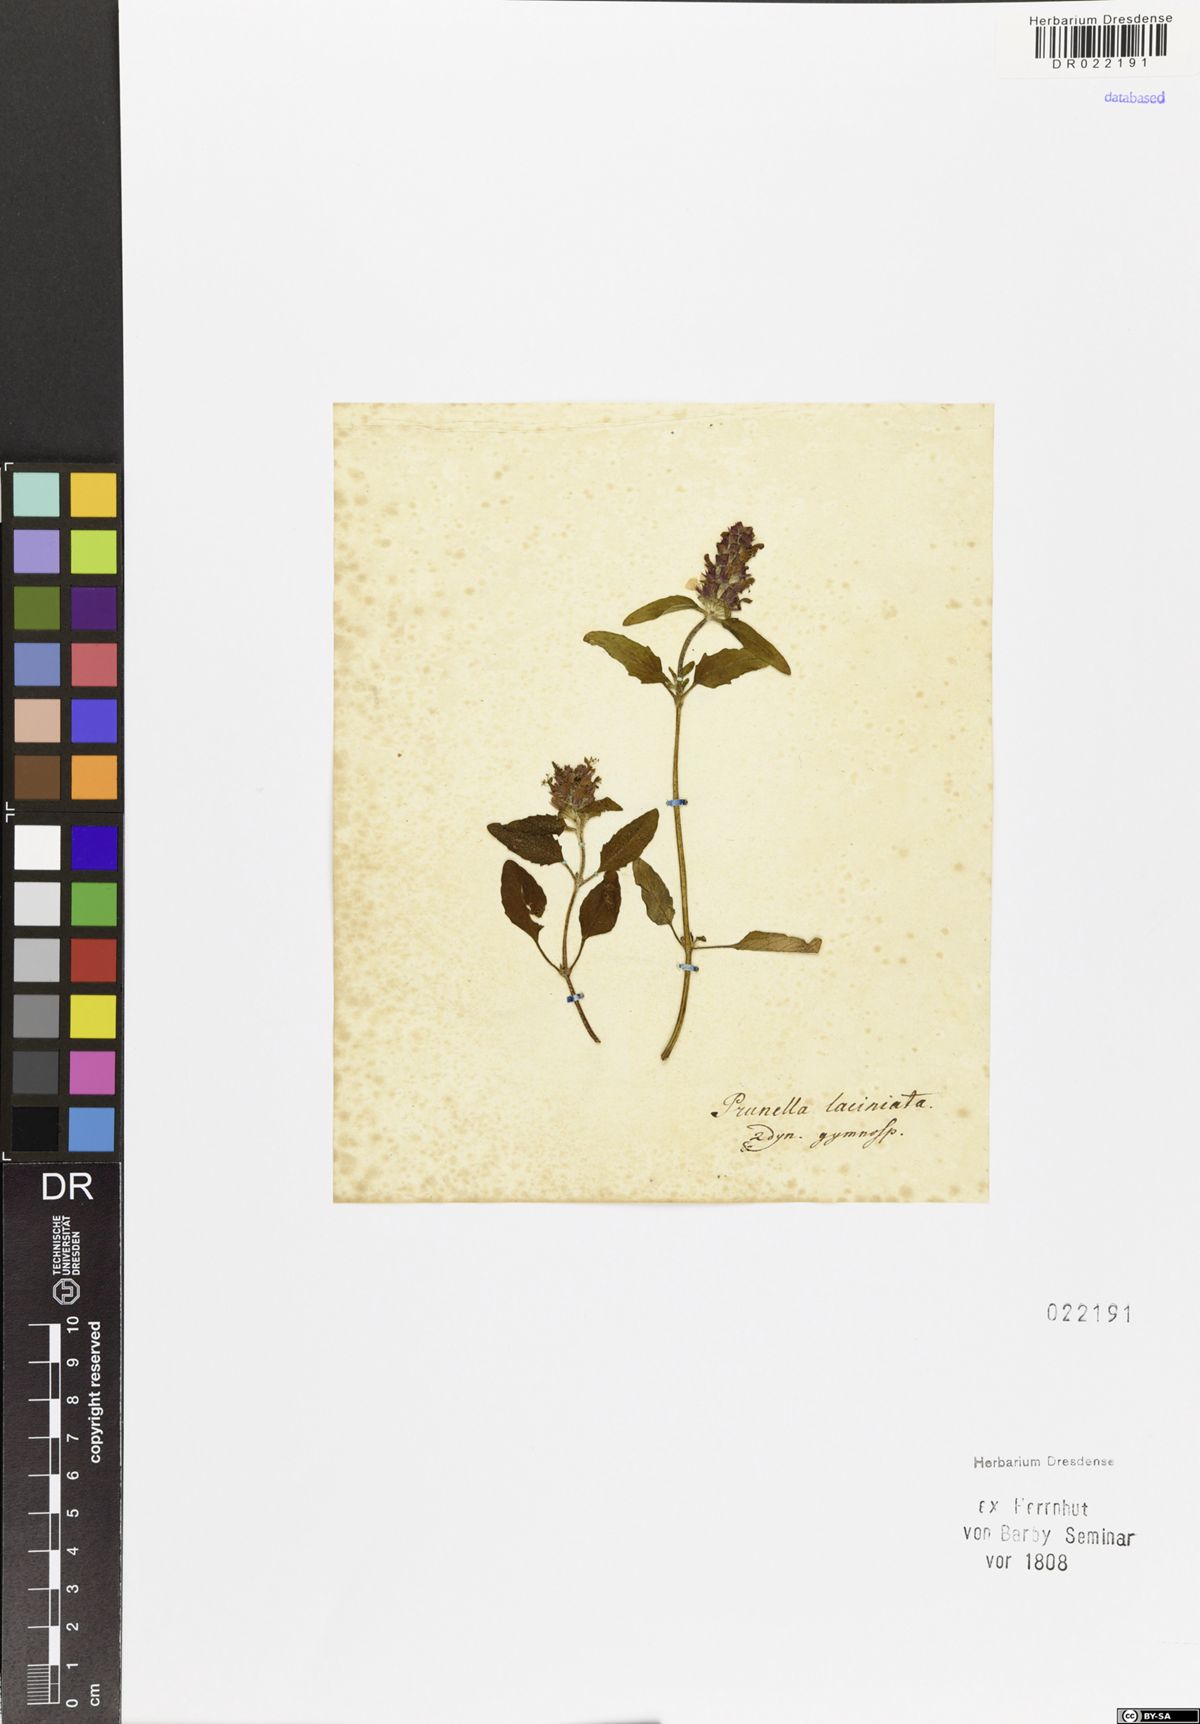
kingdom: Plantae
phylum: Tracheophyta
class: Magnoliopsida
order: Lamiales
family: Lamiaceae
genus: Prunella
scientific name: Prunella laciniata
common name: Cut-leaved selfheal
